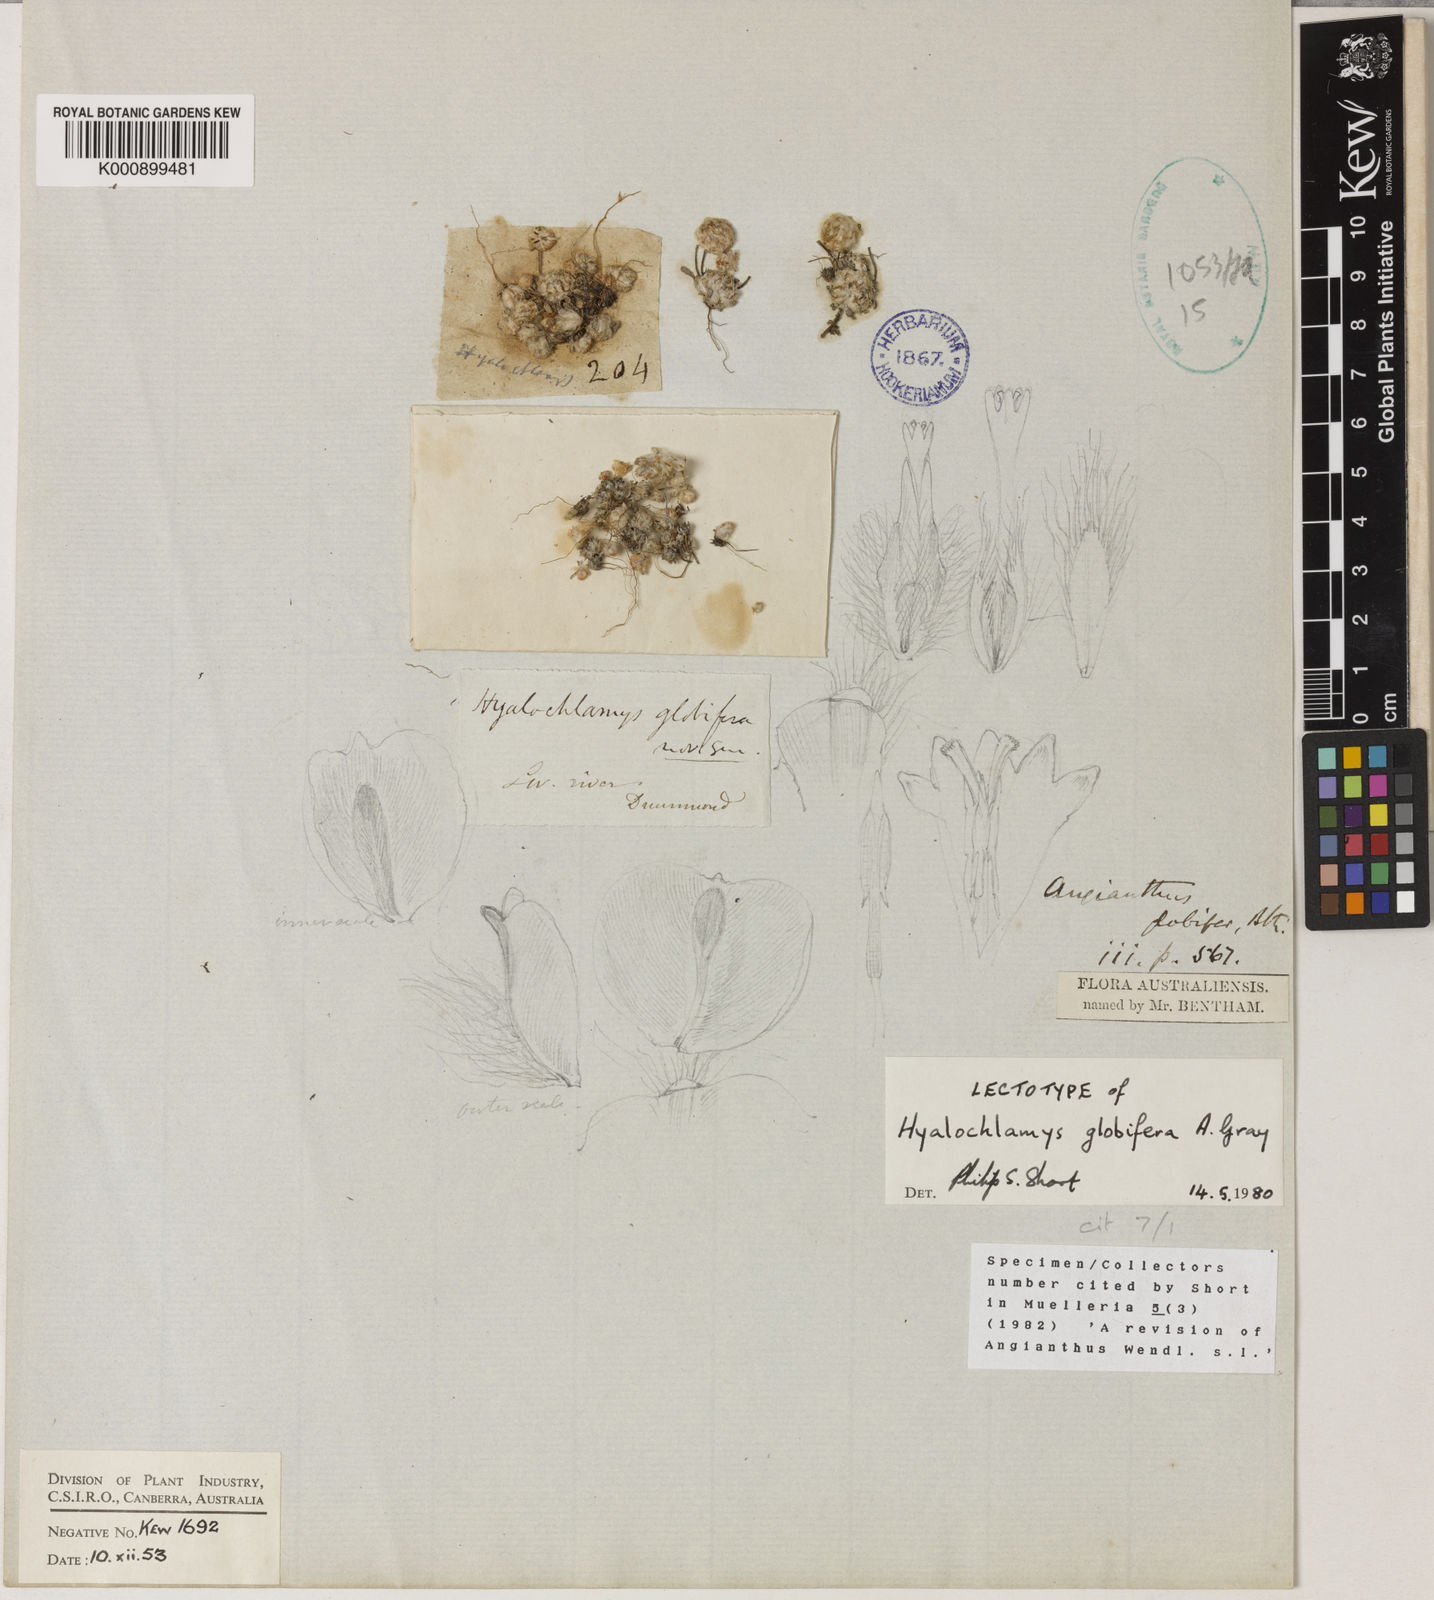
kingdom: Plantae
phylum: Tracheophyta
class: Magnoliopsida
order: Asterales
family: Asteraceae
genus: Hyalochlamys
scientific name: Hyalochlamys globifera
